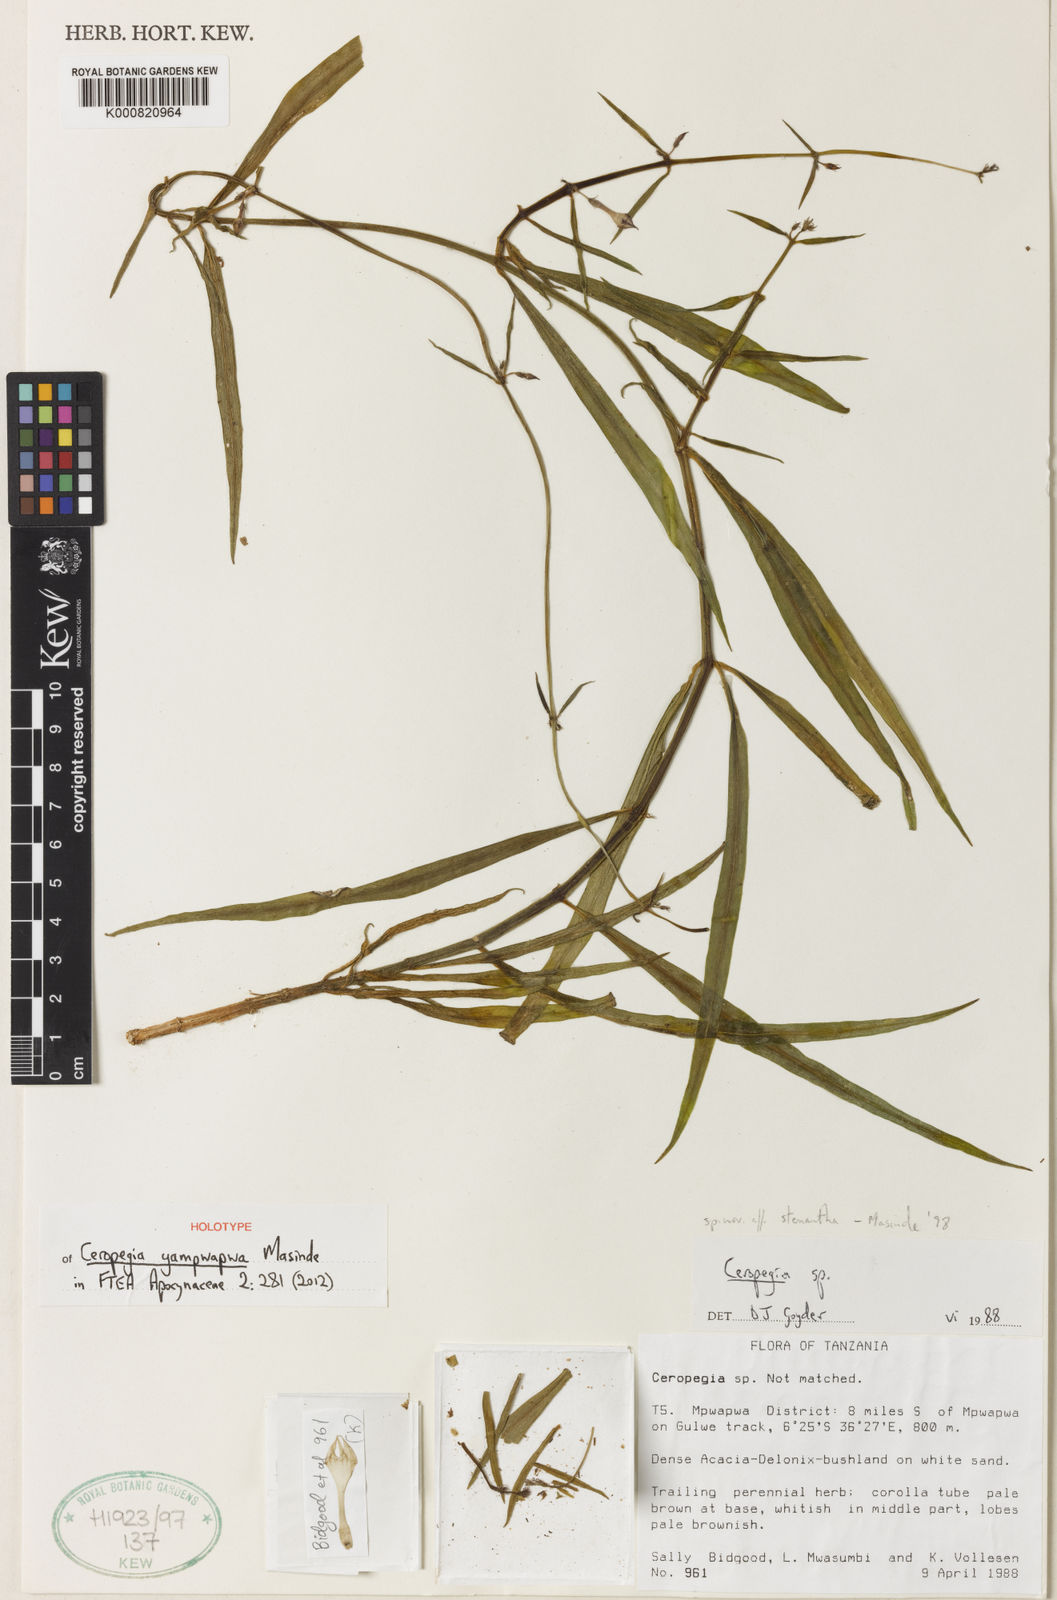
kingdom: Plantae
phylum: Tracheophyta
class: Magnoliopsida
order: Gentianales
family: Apocynaceae
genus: Ceropegia
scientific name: Ceropegia yampwapwa
